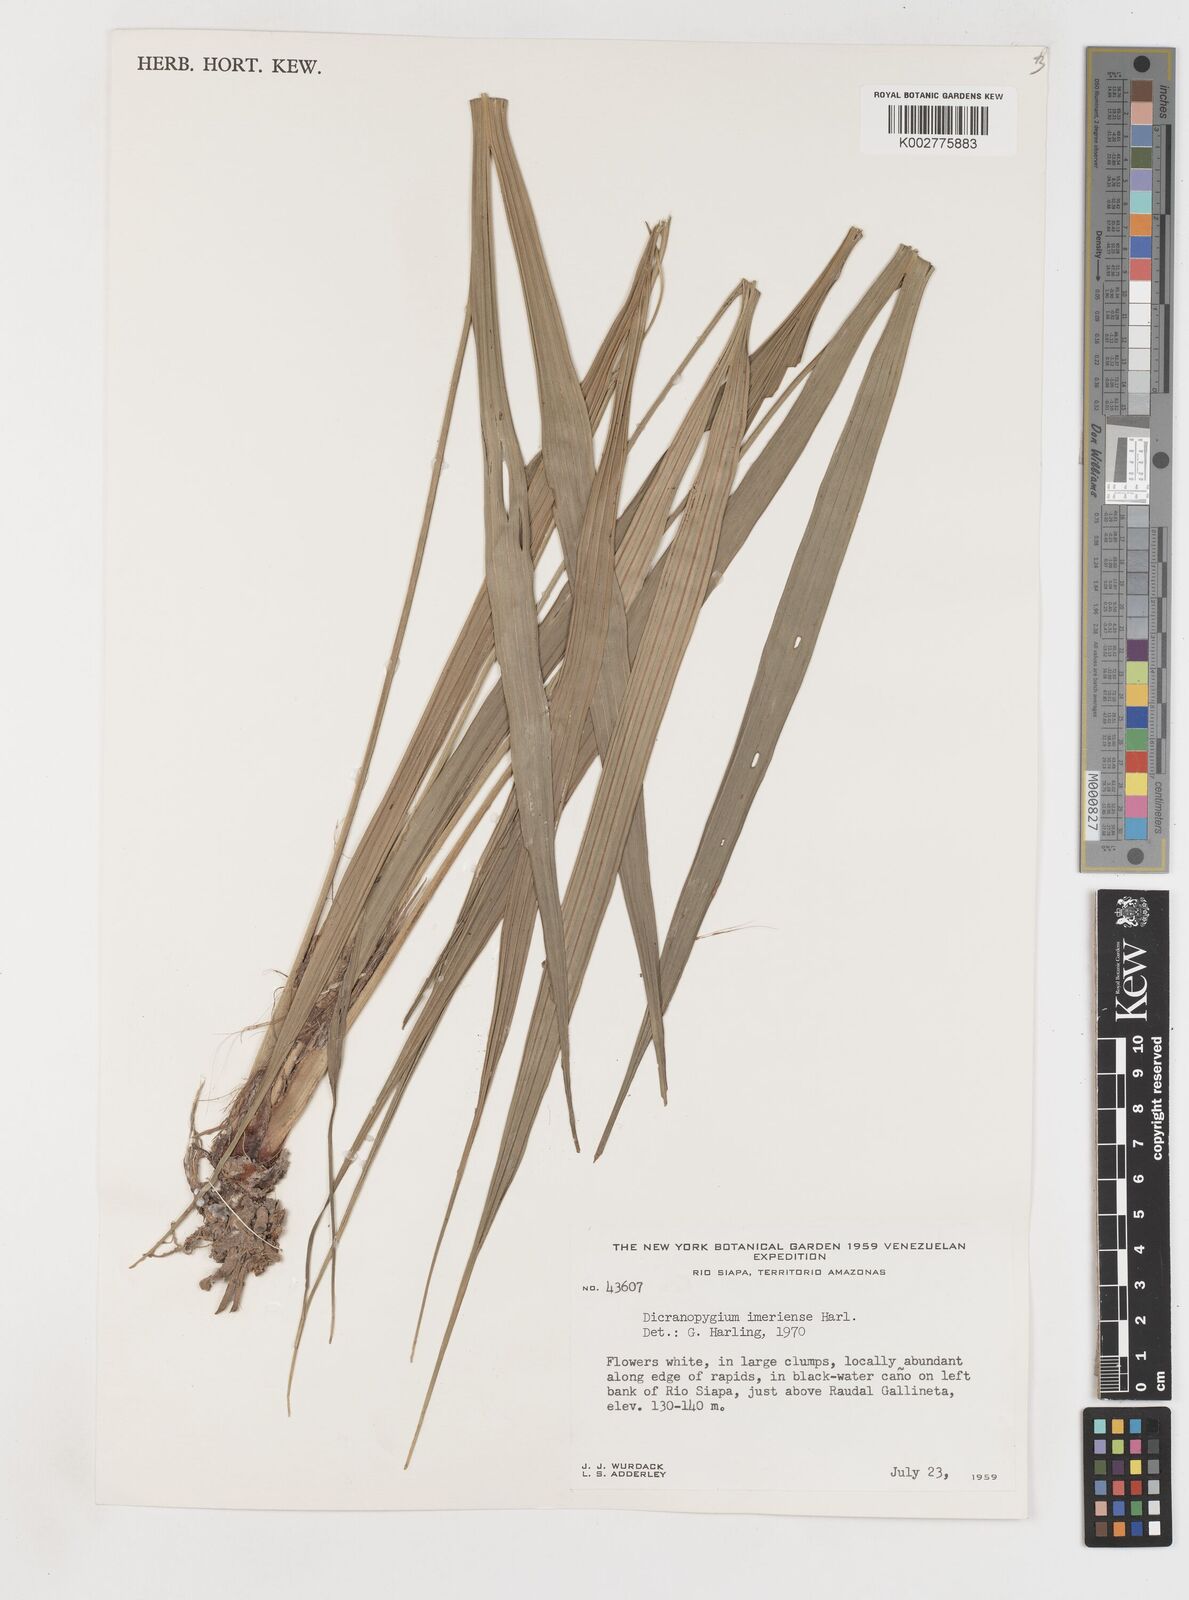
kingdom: Plantae
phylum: Tracheophyta
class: Liliopsida
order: Pandanales
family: Cyclanthaceae
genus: Dicranopygium
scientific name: Dicranopygium imeriense
